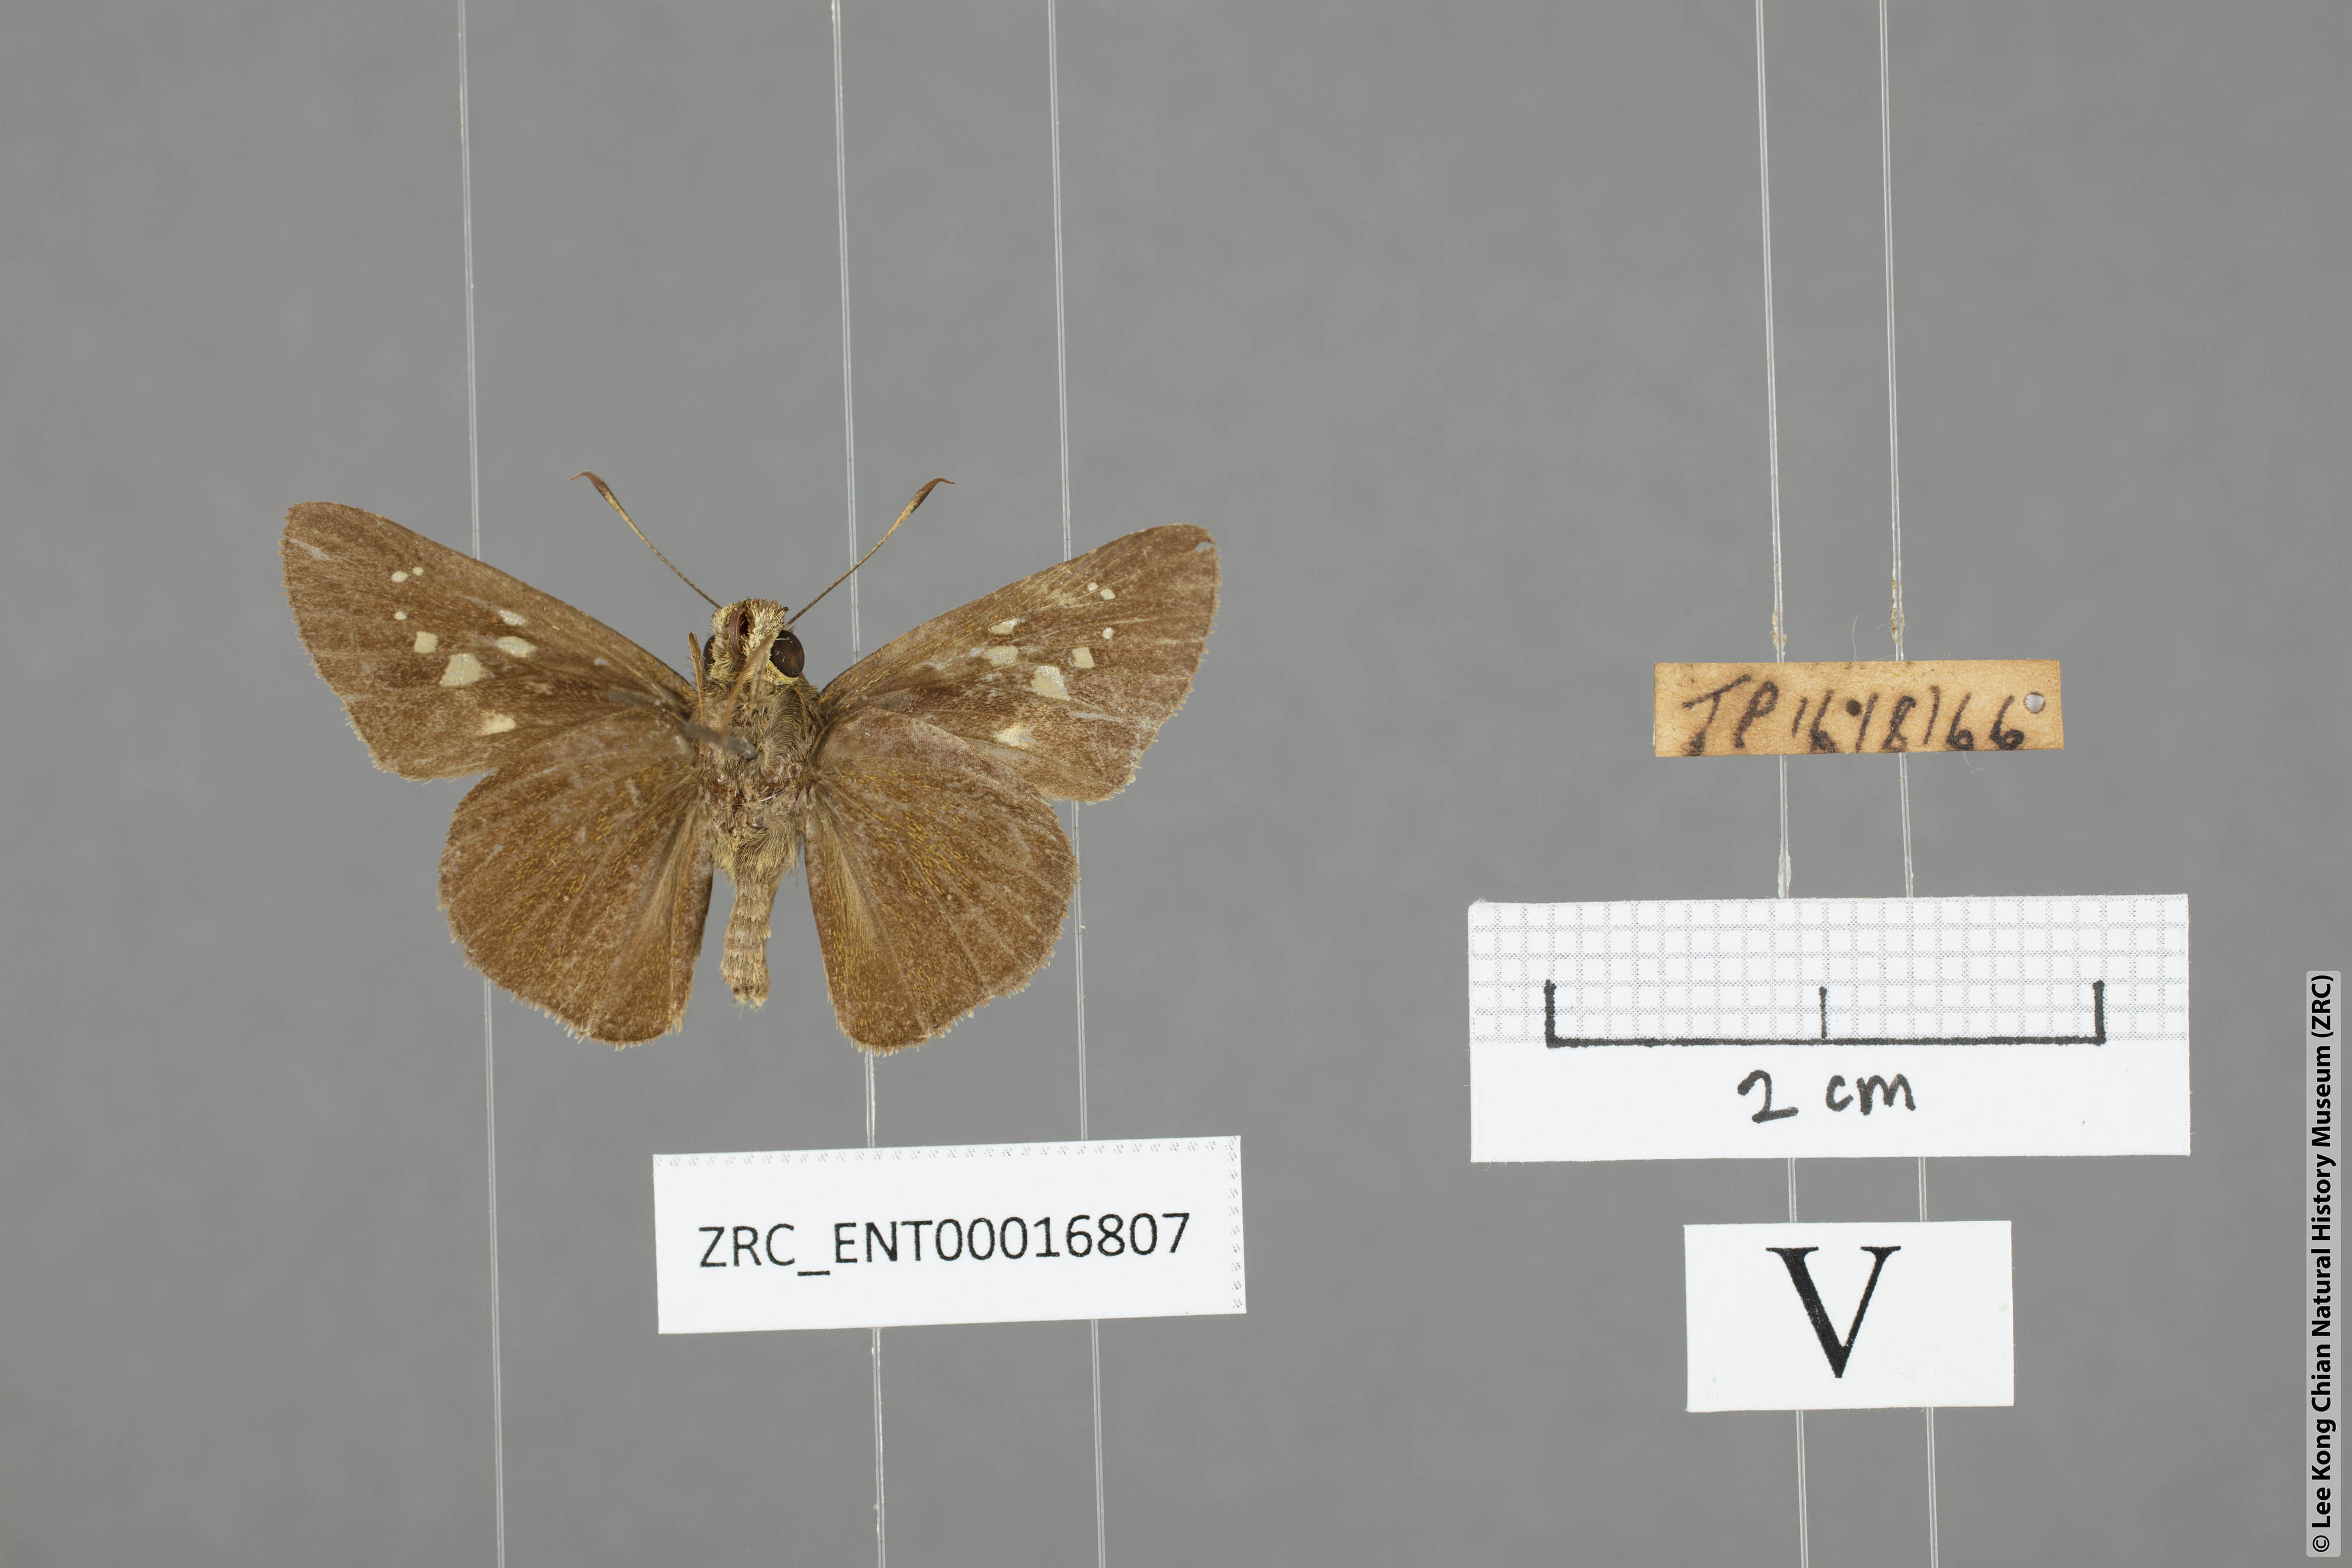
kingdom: Animalia
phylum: Arthropoda
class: Insecta
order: Lepidoptera
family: Hesperiidae
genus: Caltoris
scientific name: Caltoris bromus
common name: Colon swift
